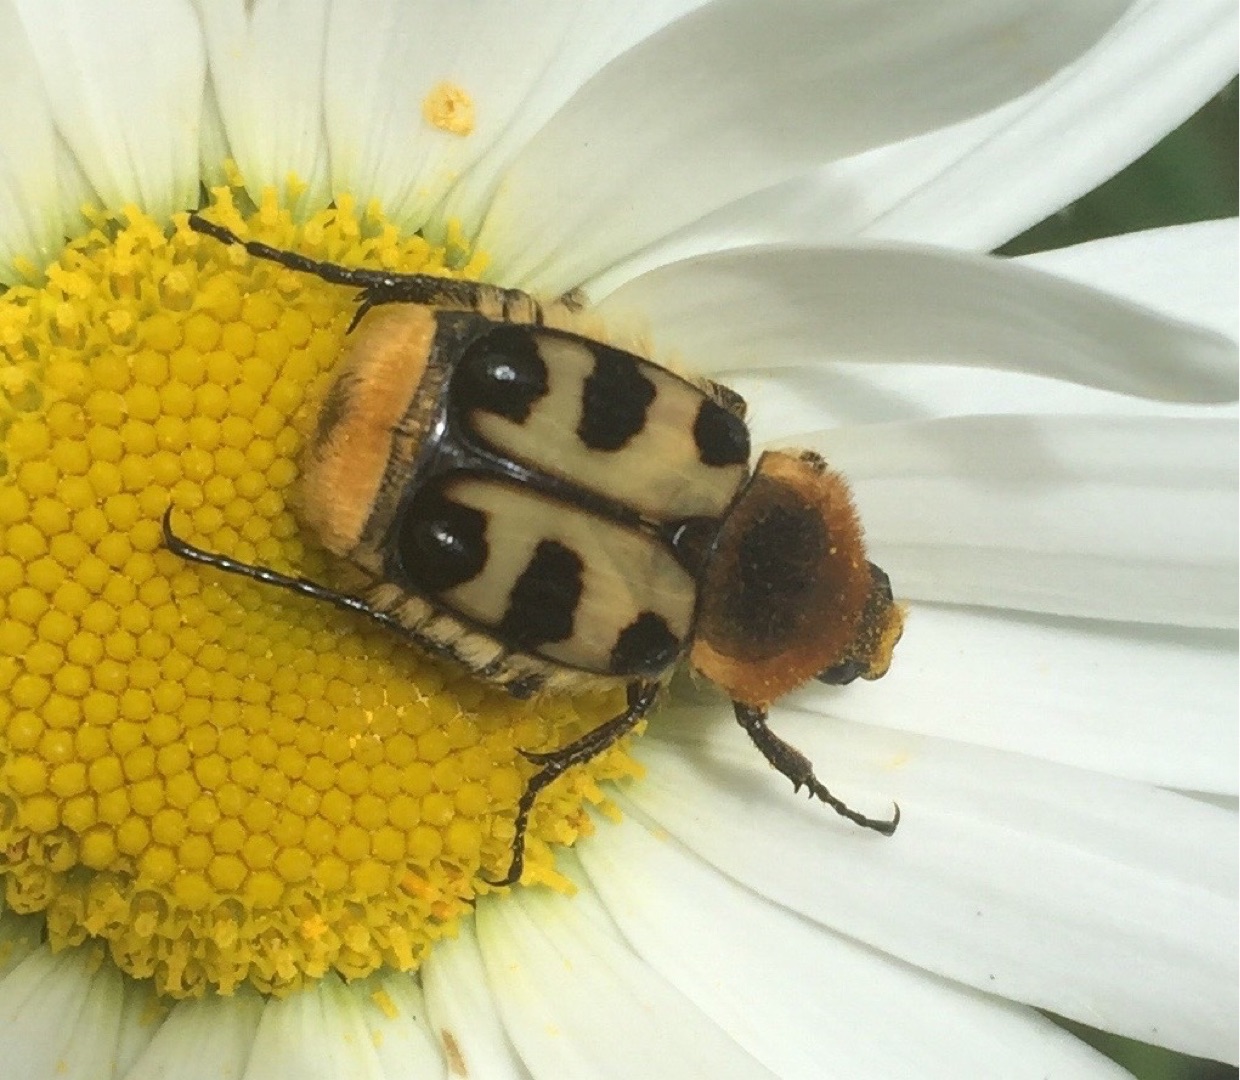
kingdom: Animalia
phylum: Arthropoda
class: Insecta
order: Coleoptera
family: Scarabaeidae
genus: Trichius
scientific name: Trichius gallicus
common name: Lille humlebille
